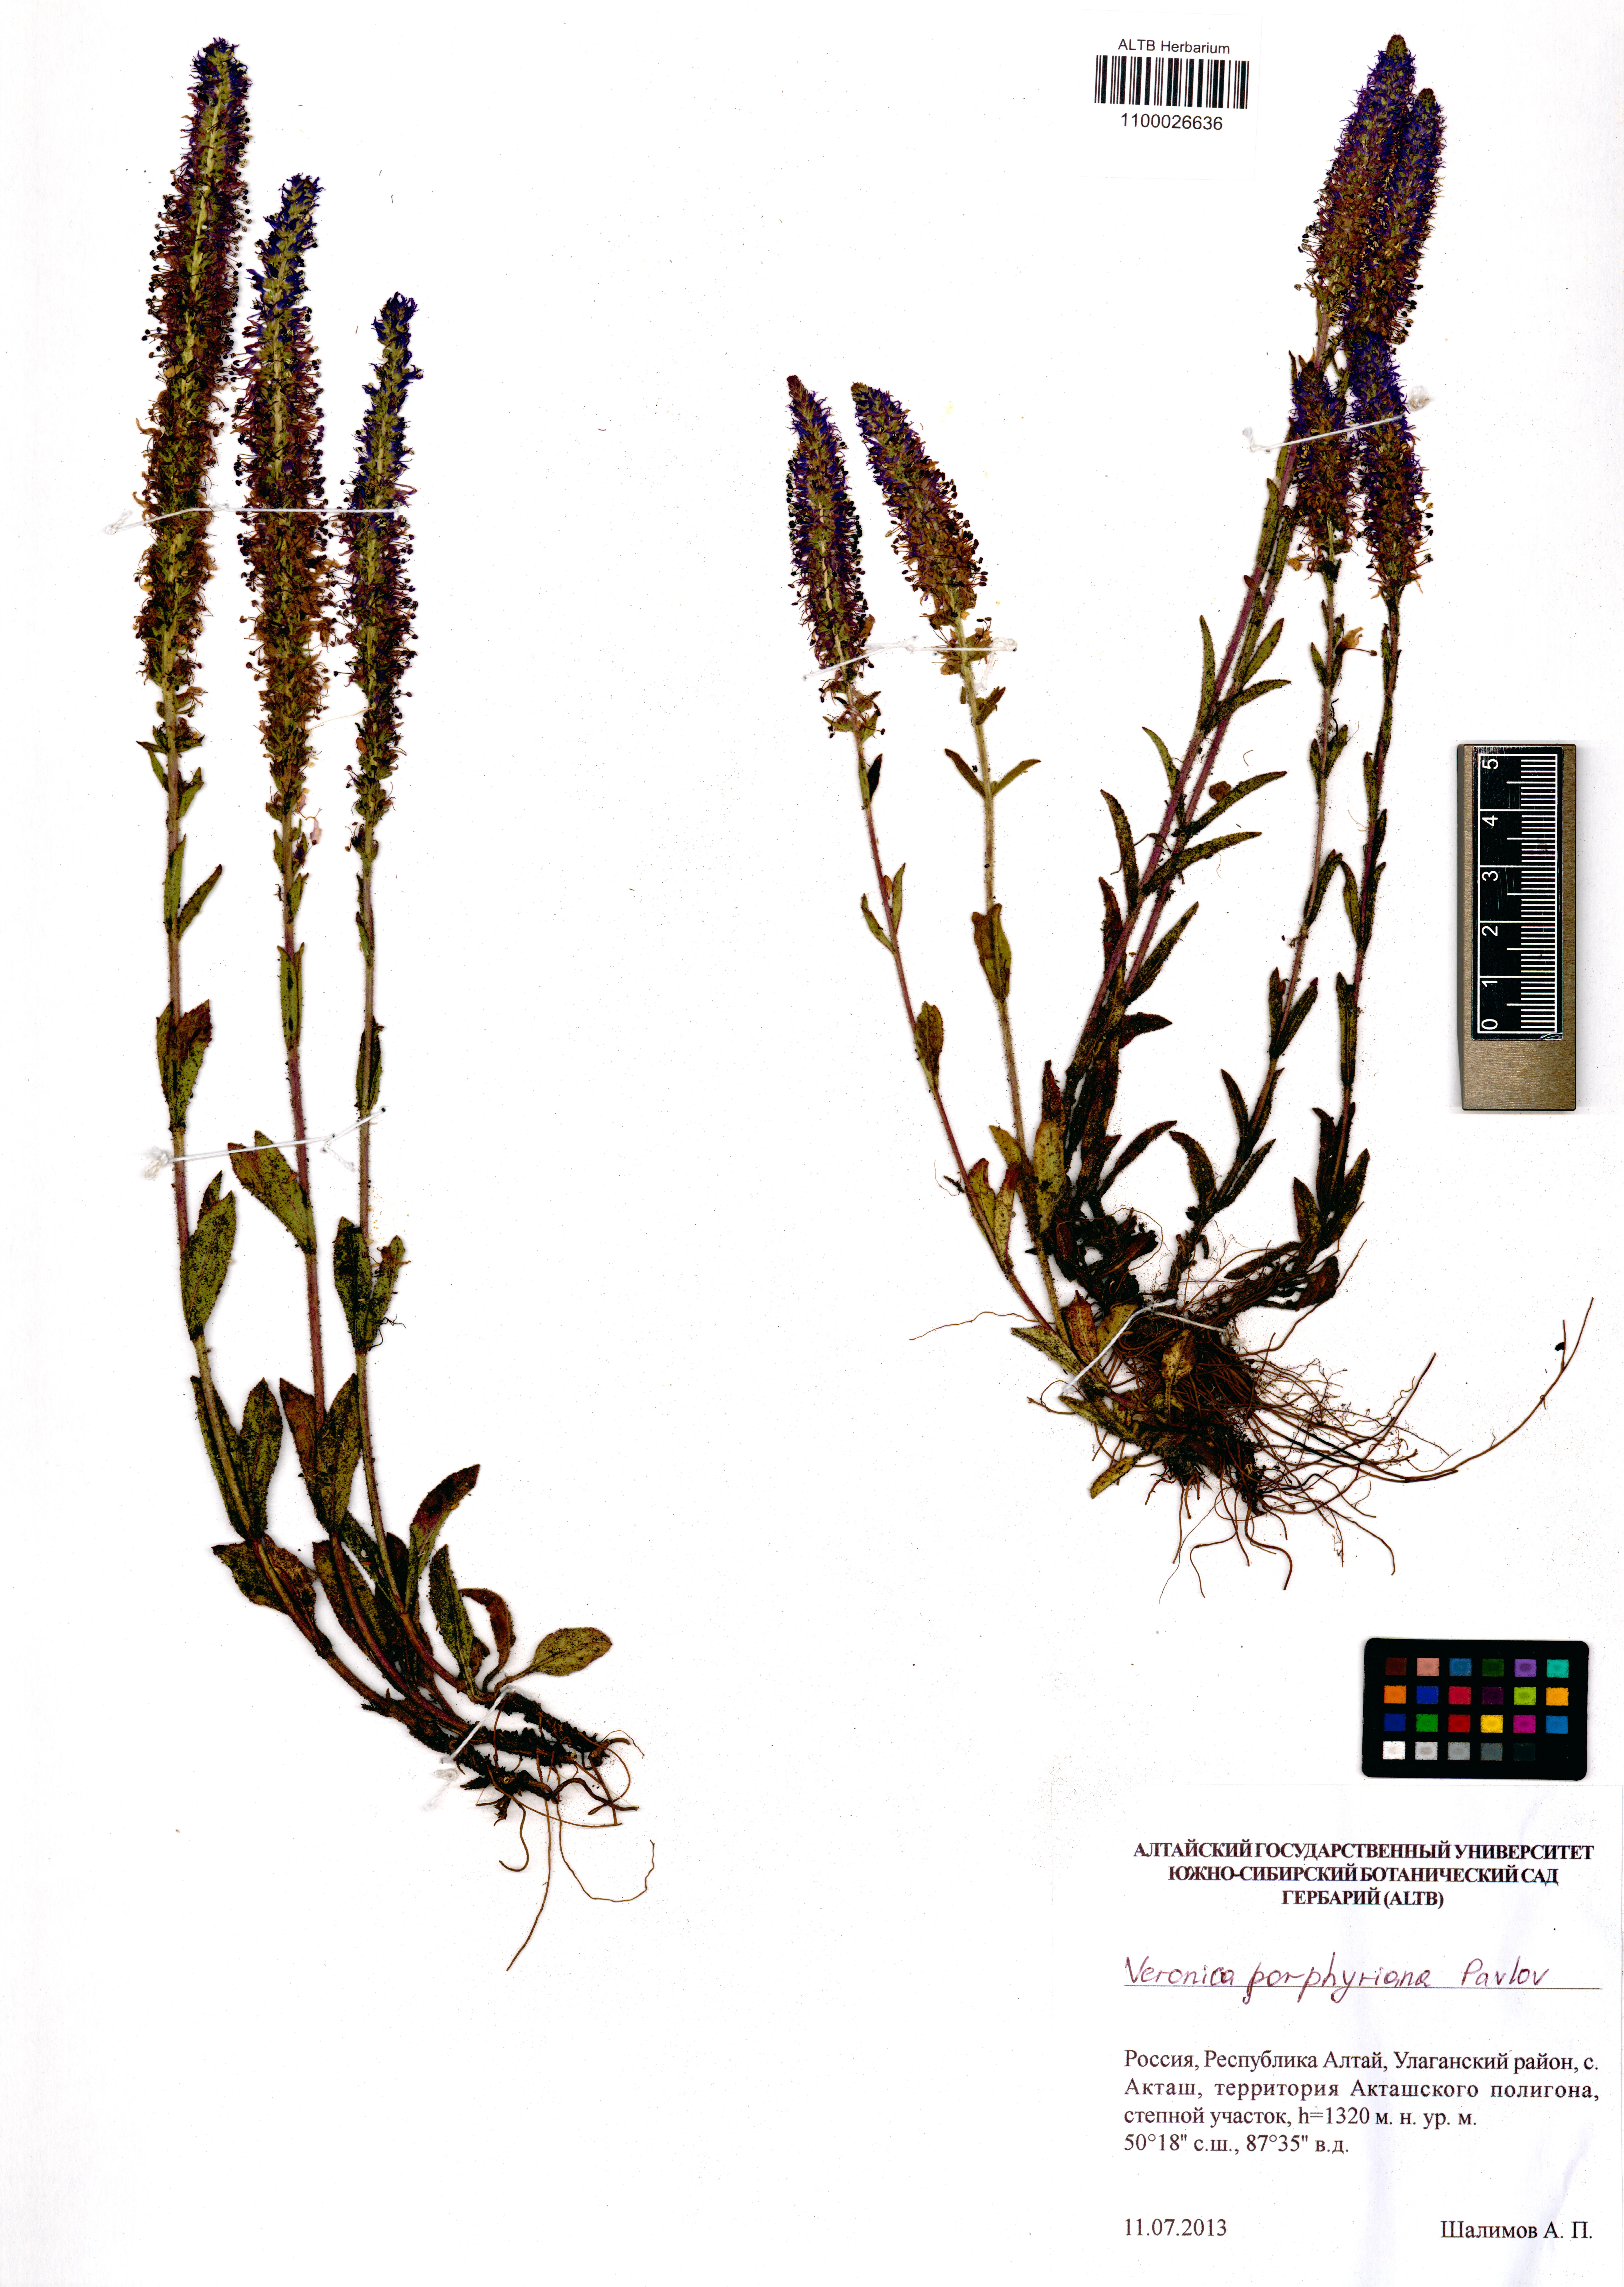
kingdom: Plantae
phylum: Tracheophyta
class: Magnoliopsida
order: Lamiales
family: Plantaginaceae
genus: Veronica
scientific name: Veronica porphyriana
